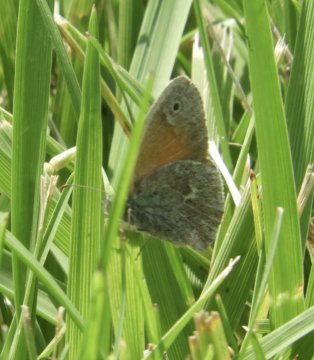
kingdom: Animalia
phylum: Arthropoda
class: Insecta
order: Lepidoptera
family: Nymphalidae
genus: Coenonympha
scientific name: Coenonympha tullia
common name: Large Heath
